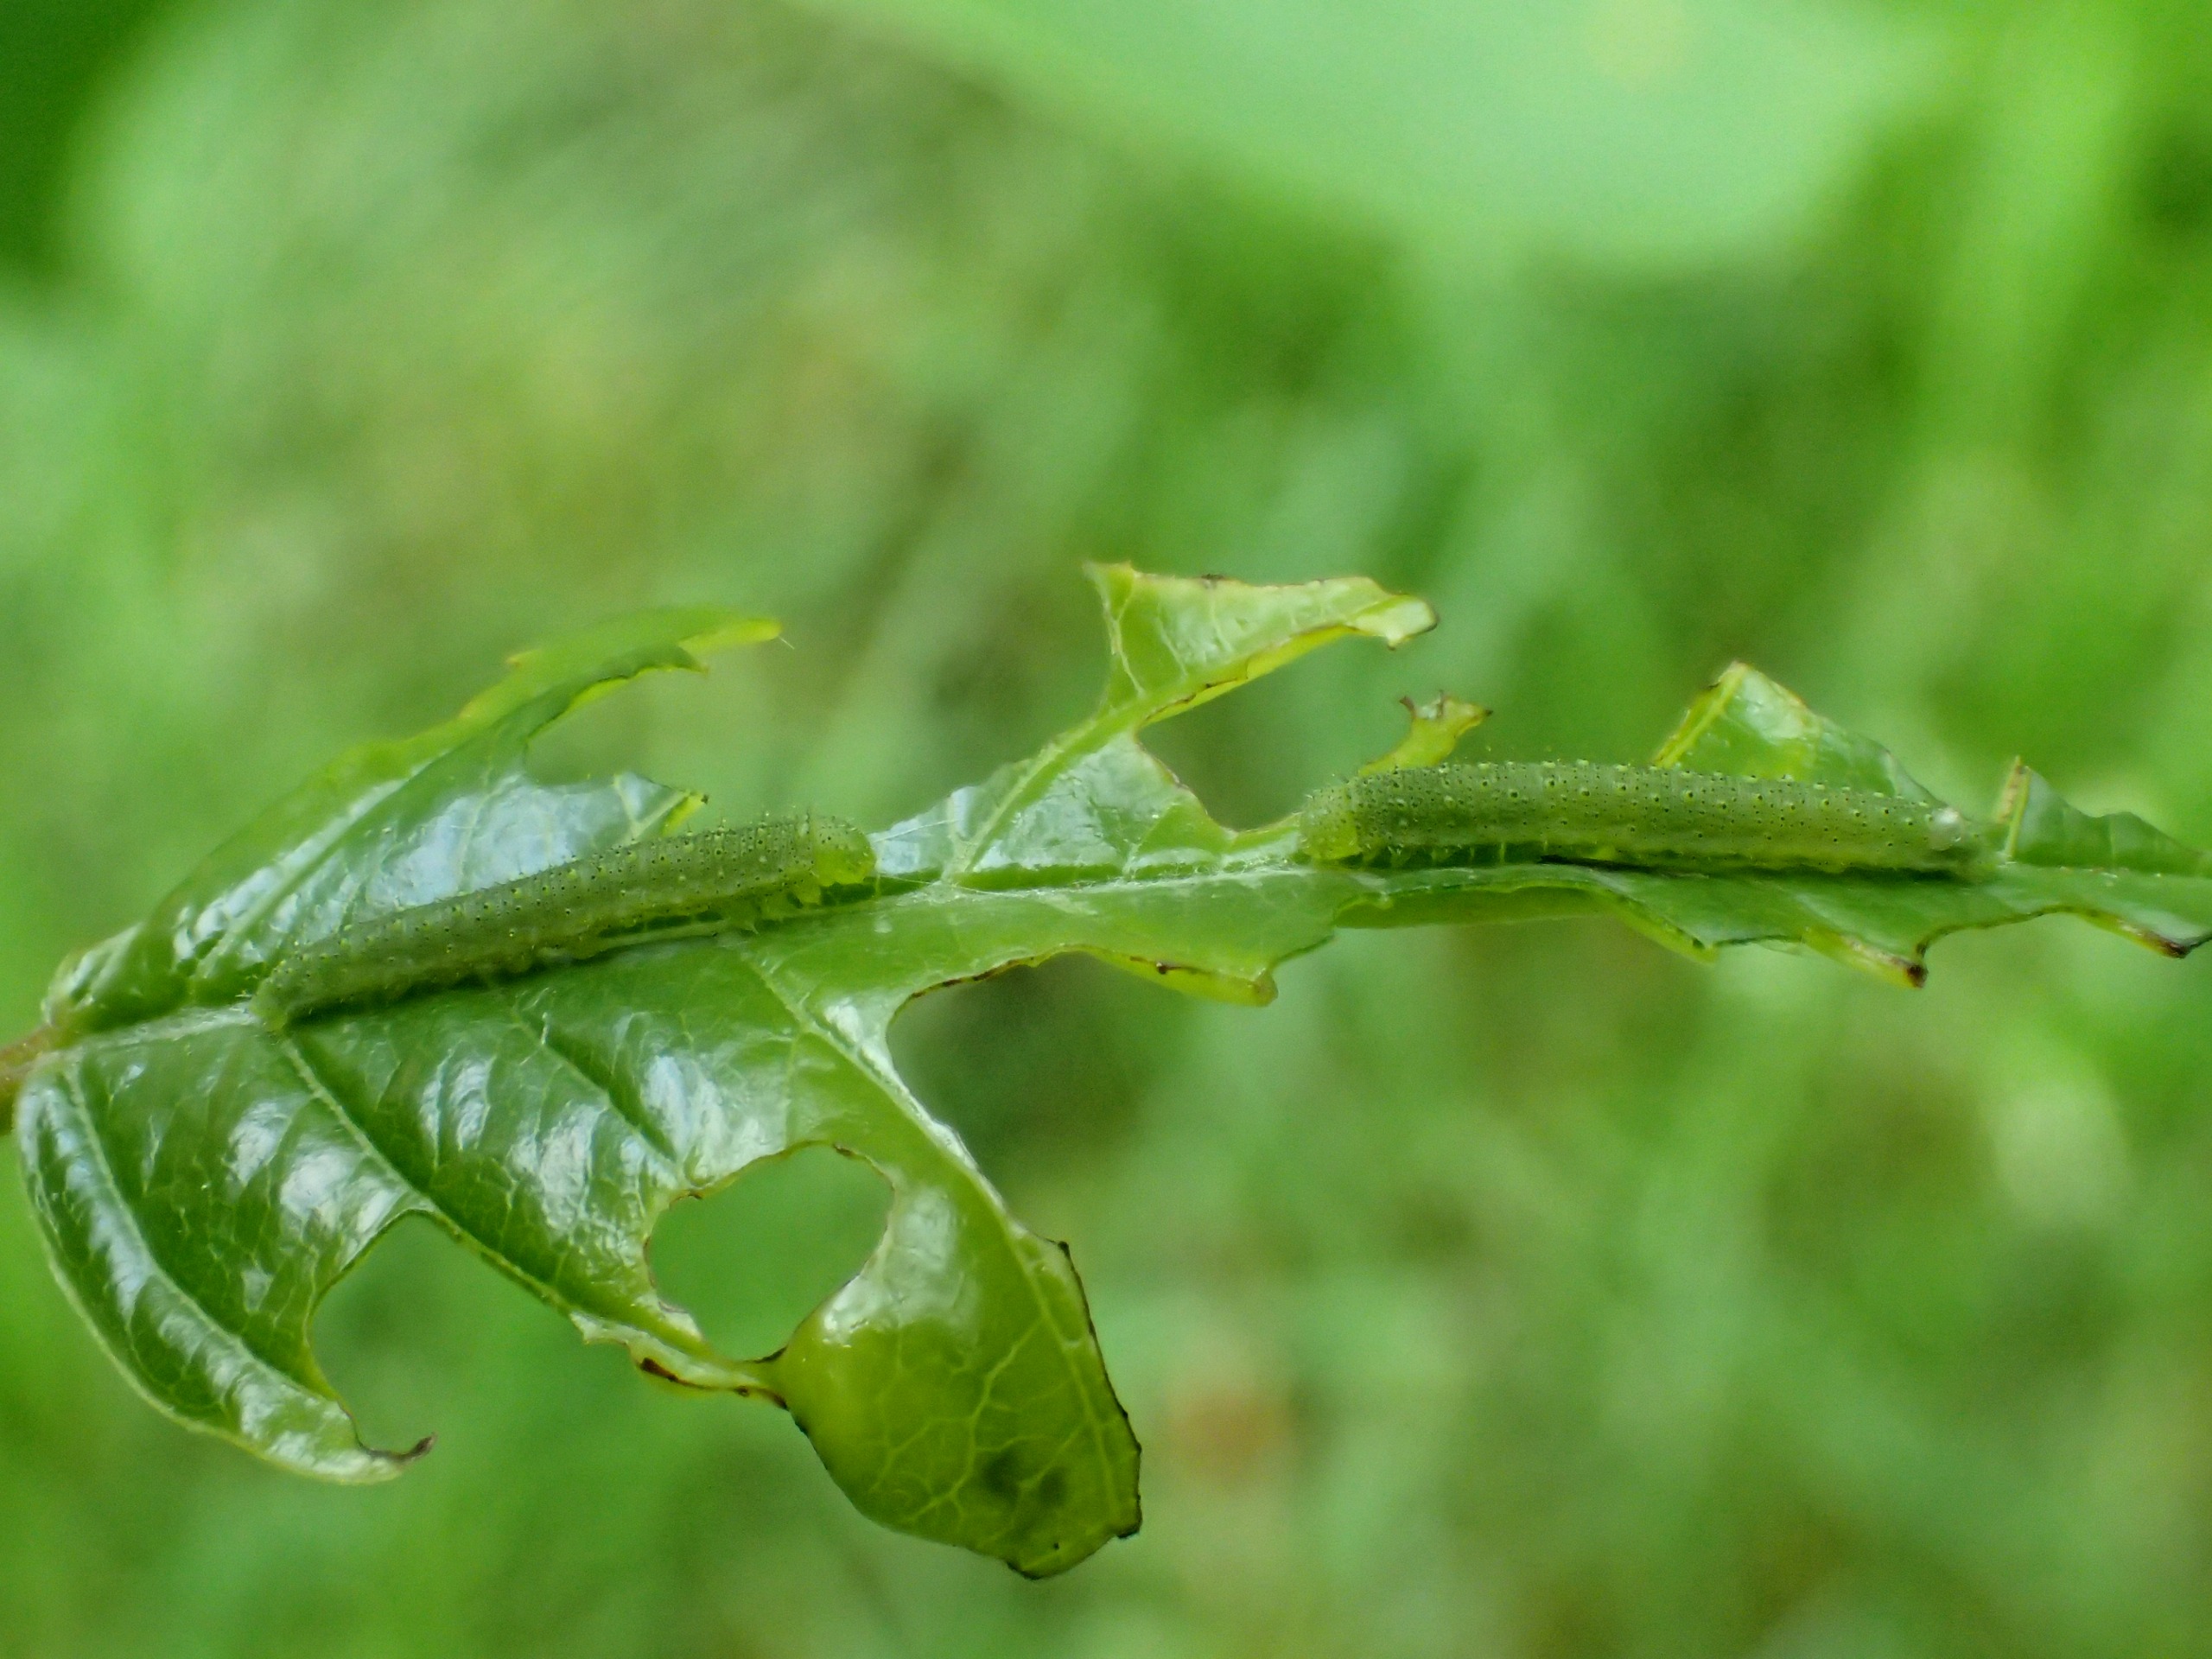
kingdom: Animalia
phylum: Arthropoda
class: Insecta
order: Lepidoptera
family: Pieridae
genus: Gonepteryx
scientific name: Gonepteryx rhamni
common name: Citronsommerfugl
